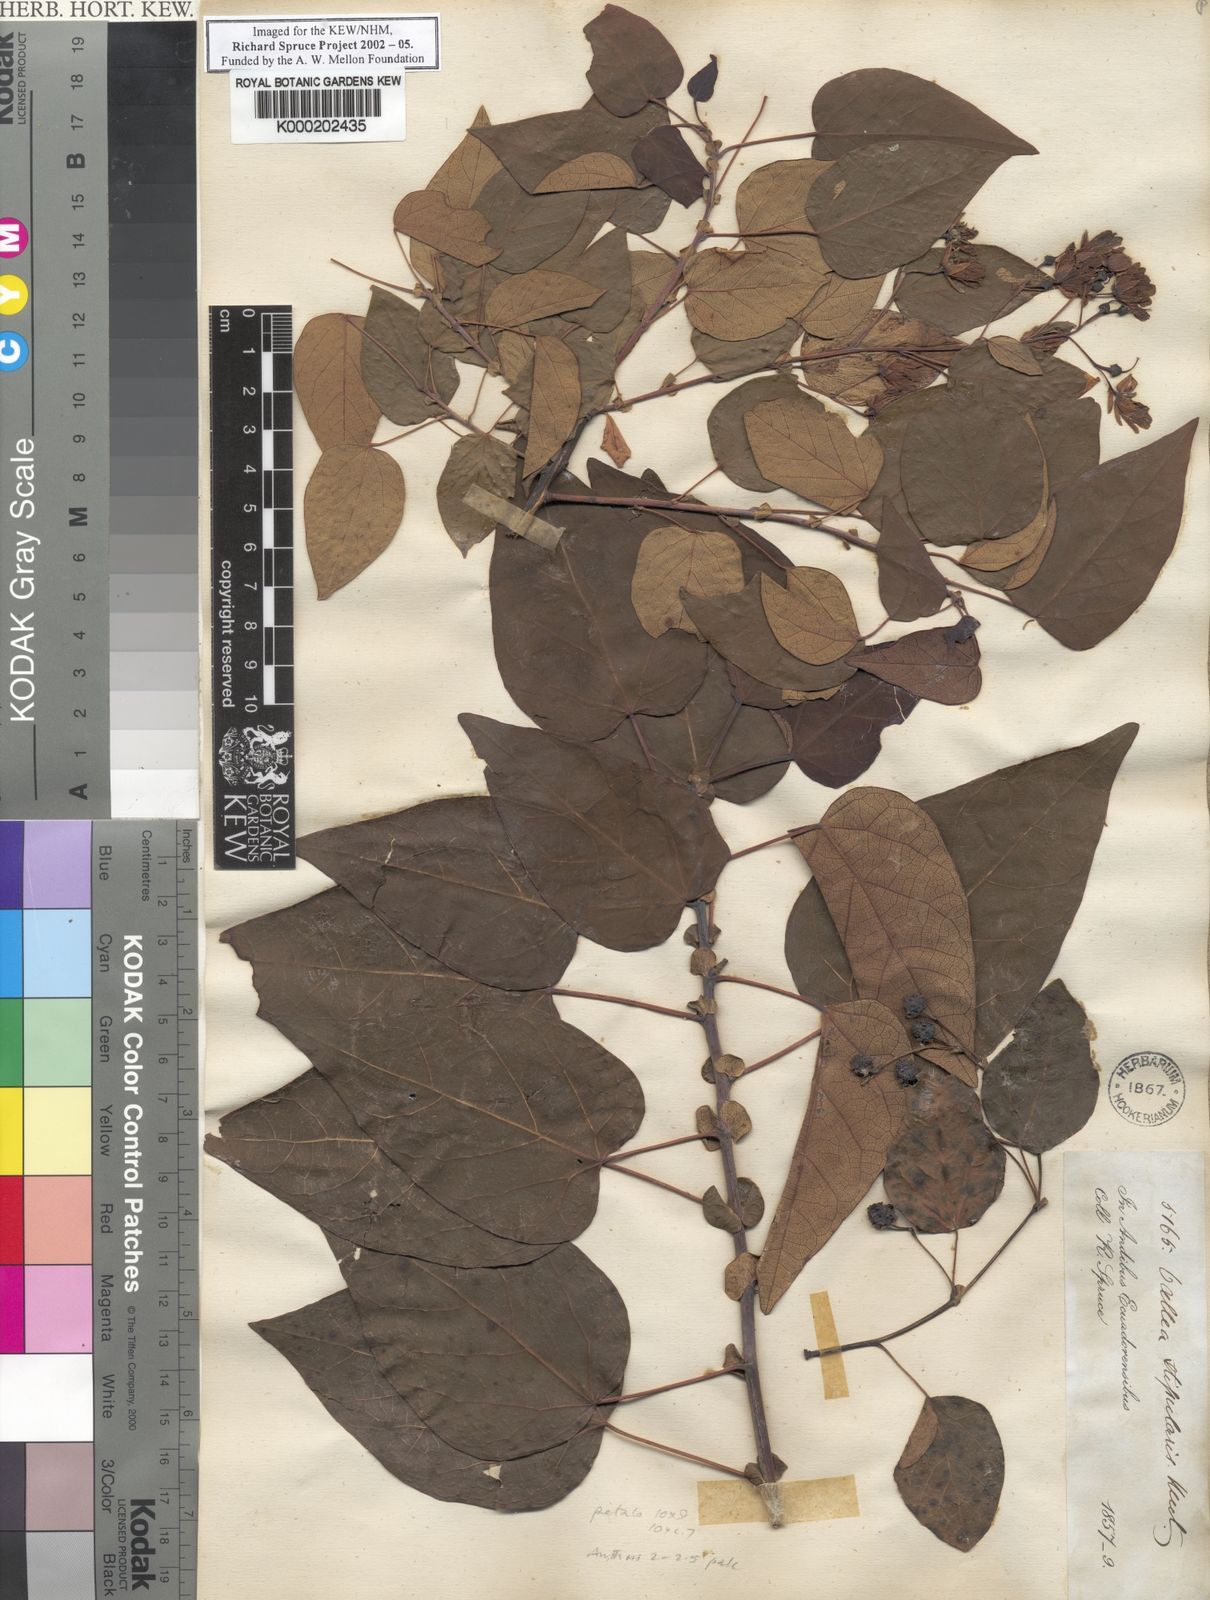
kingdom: Plantae
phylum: Tracheophyta
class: Magnoliopsida
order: Oxalidales
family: Elaeocarpaceae
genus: Vallea
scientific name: Vallea stipularis
